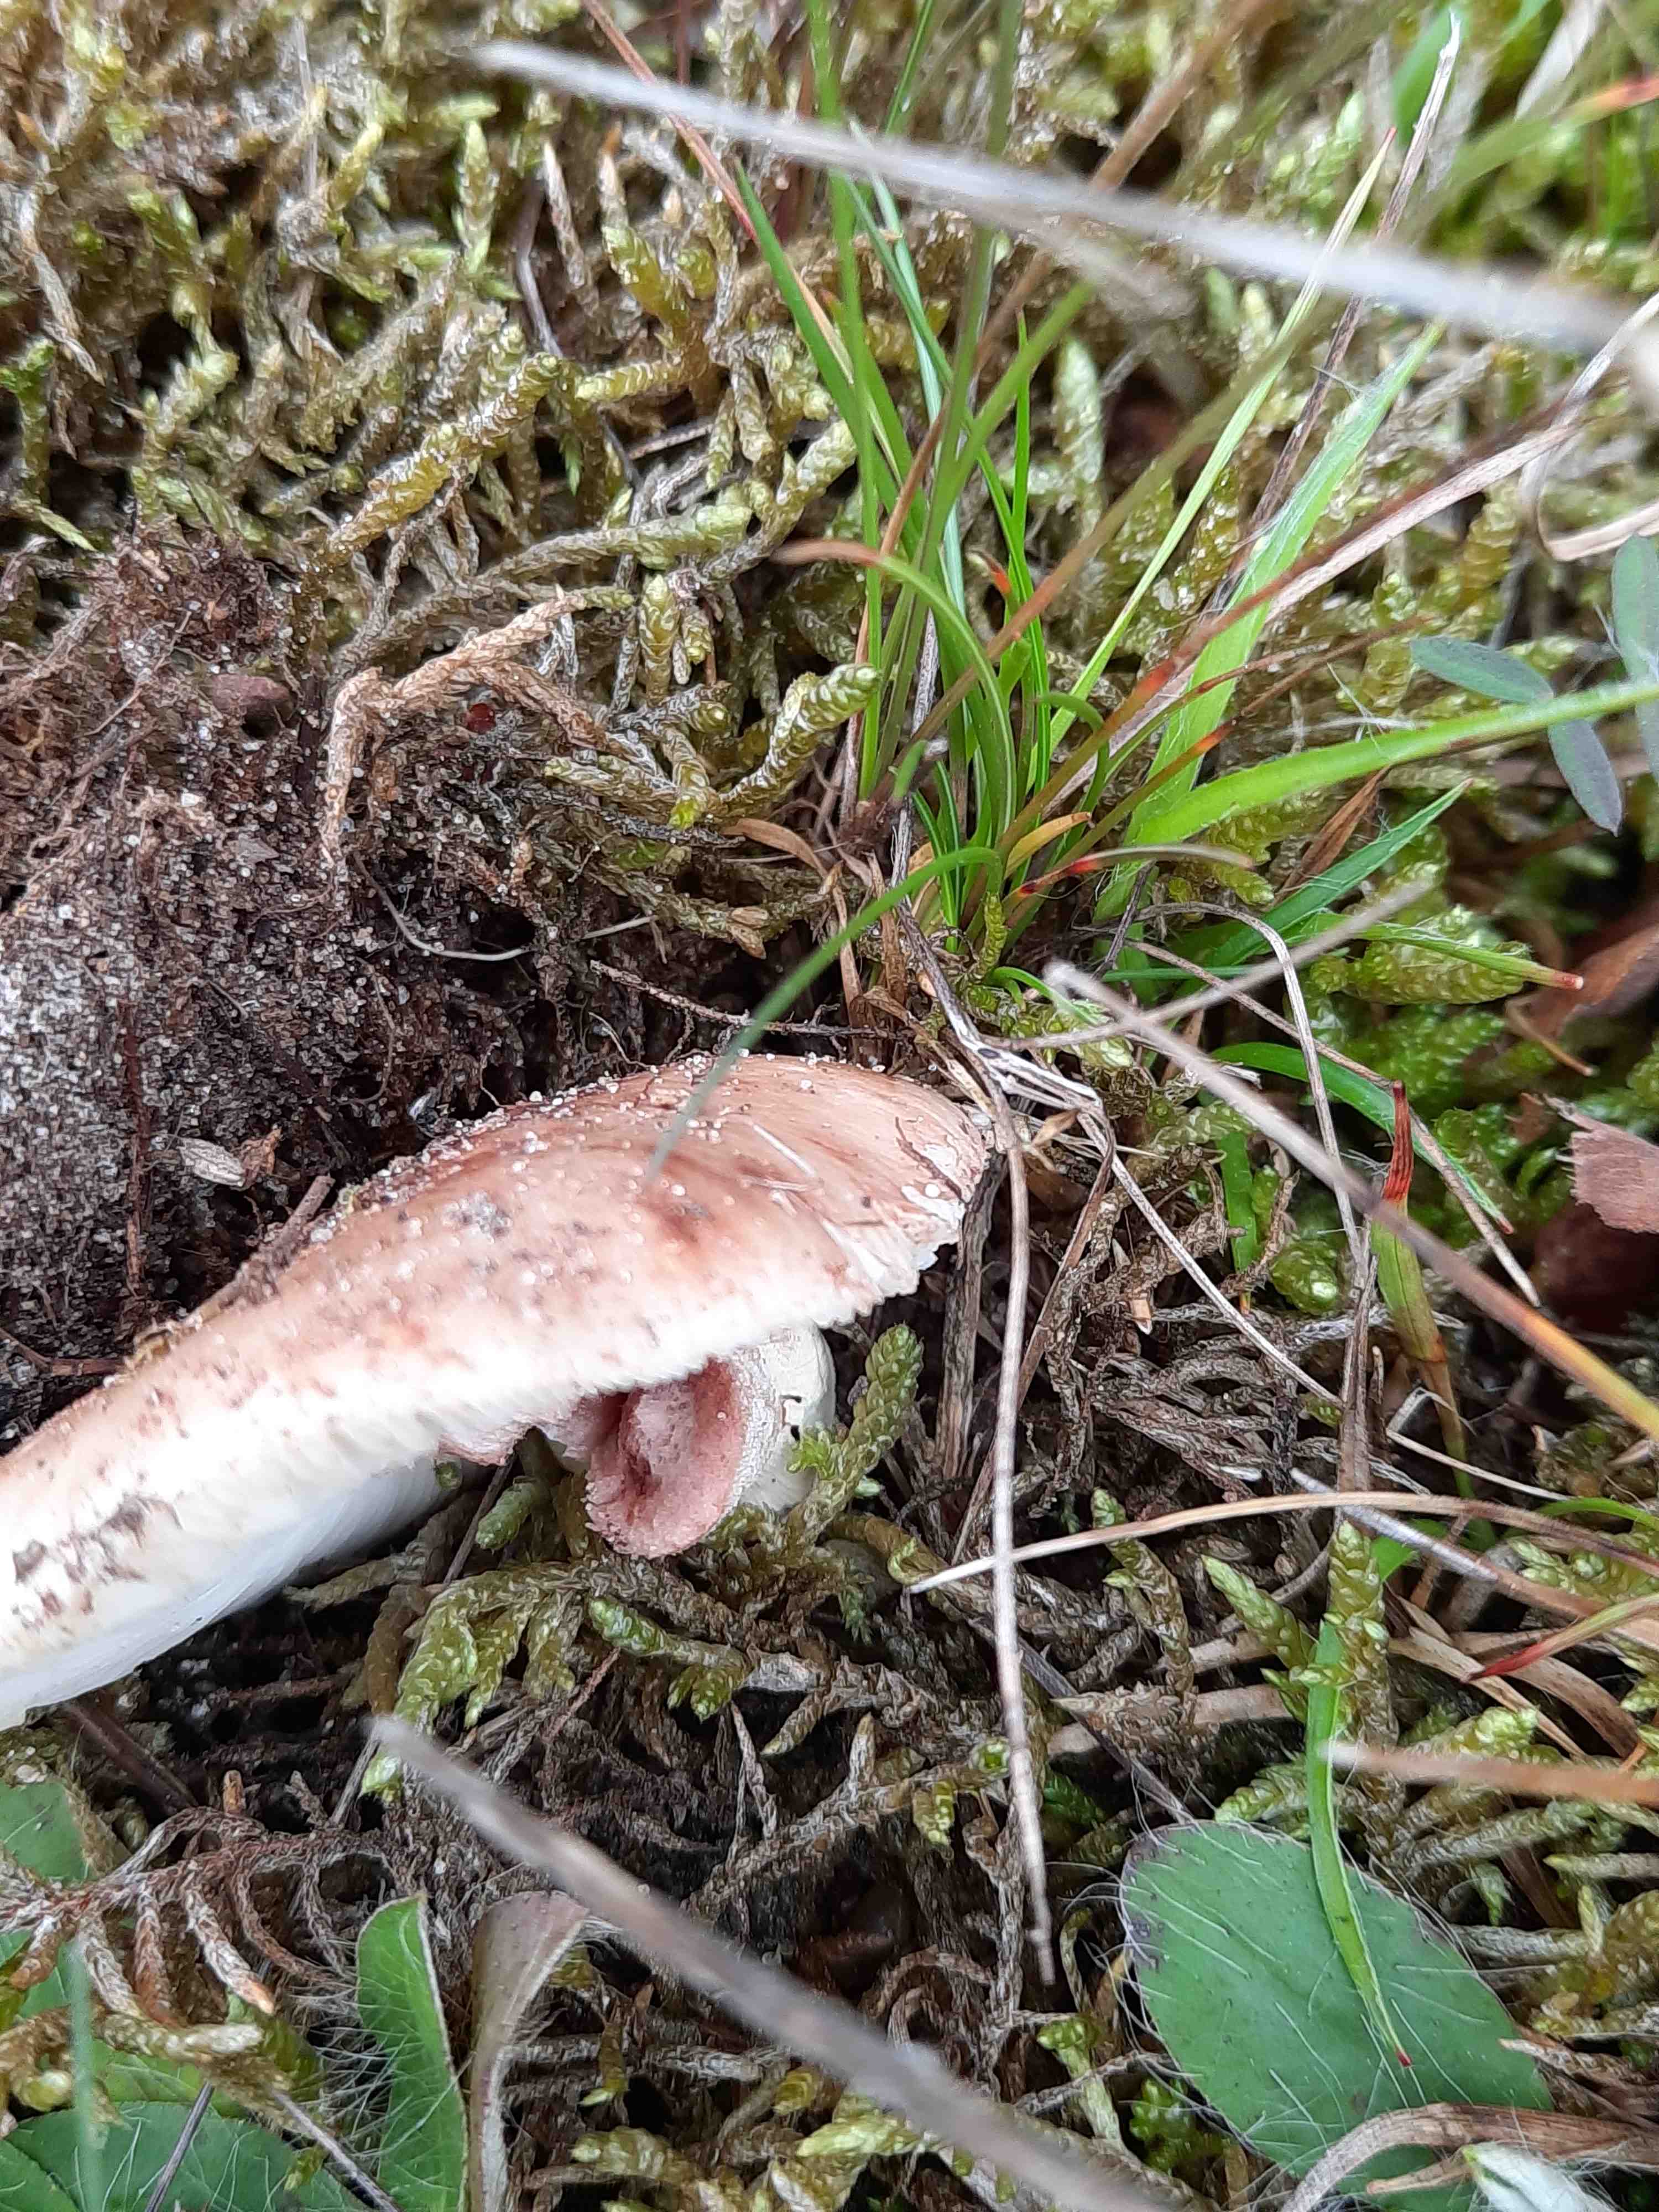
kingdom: Fungi
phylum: Basidiomycota
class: Agaricomycetes
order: Agaricales
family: Amanitaceae
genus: Amanita
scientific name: Amanita rubescens
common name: rødmende fluesvamp
